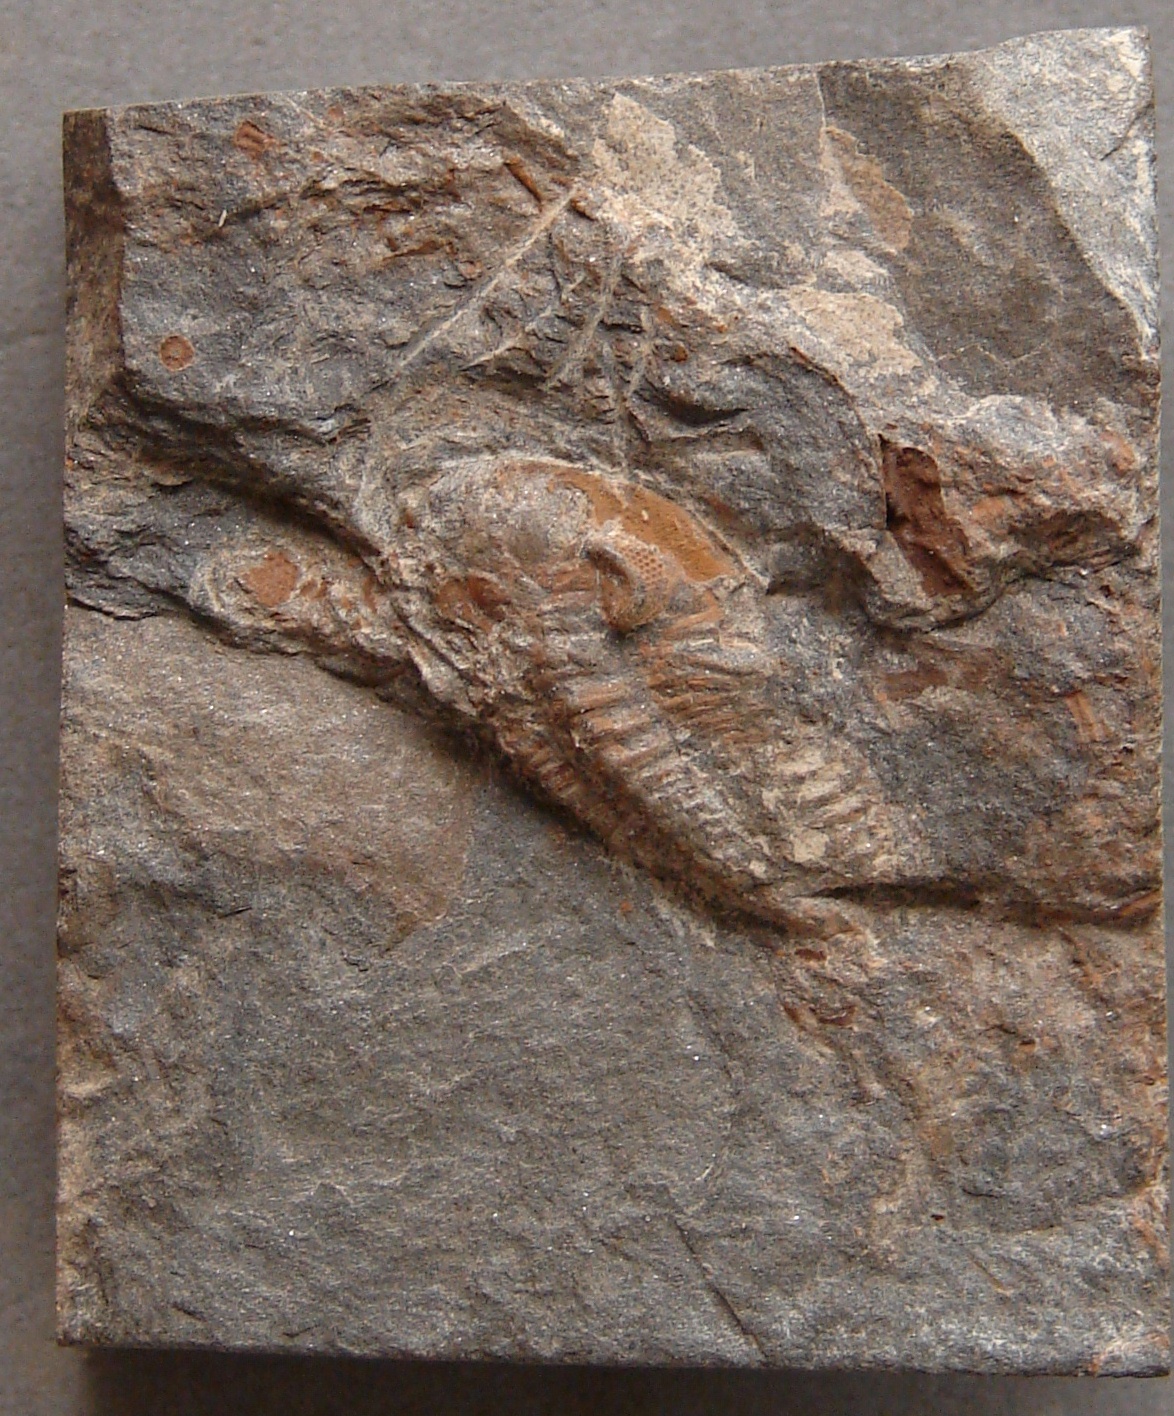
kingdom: Animalia
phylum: Arthropoda
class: Trilobita
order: Phacopida
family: Acastidae
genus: Acastoides
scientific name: Acastoides
